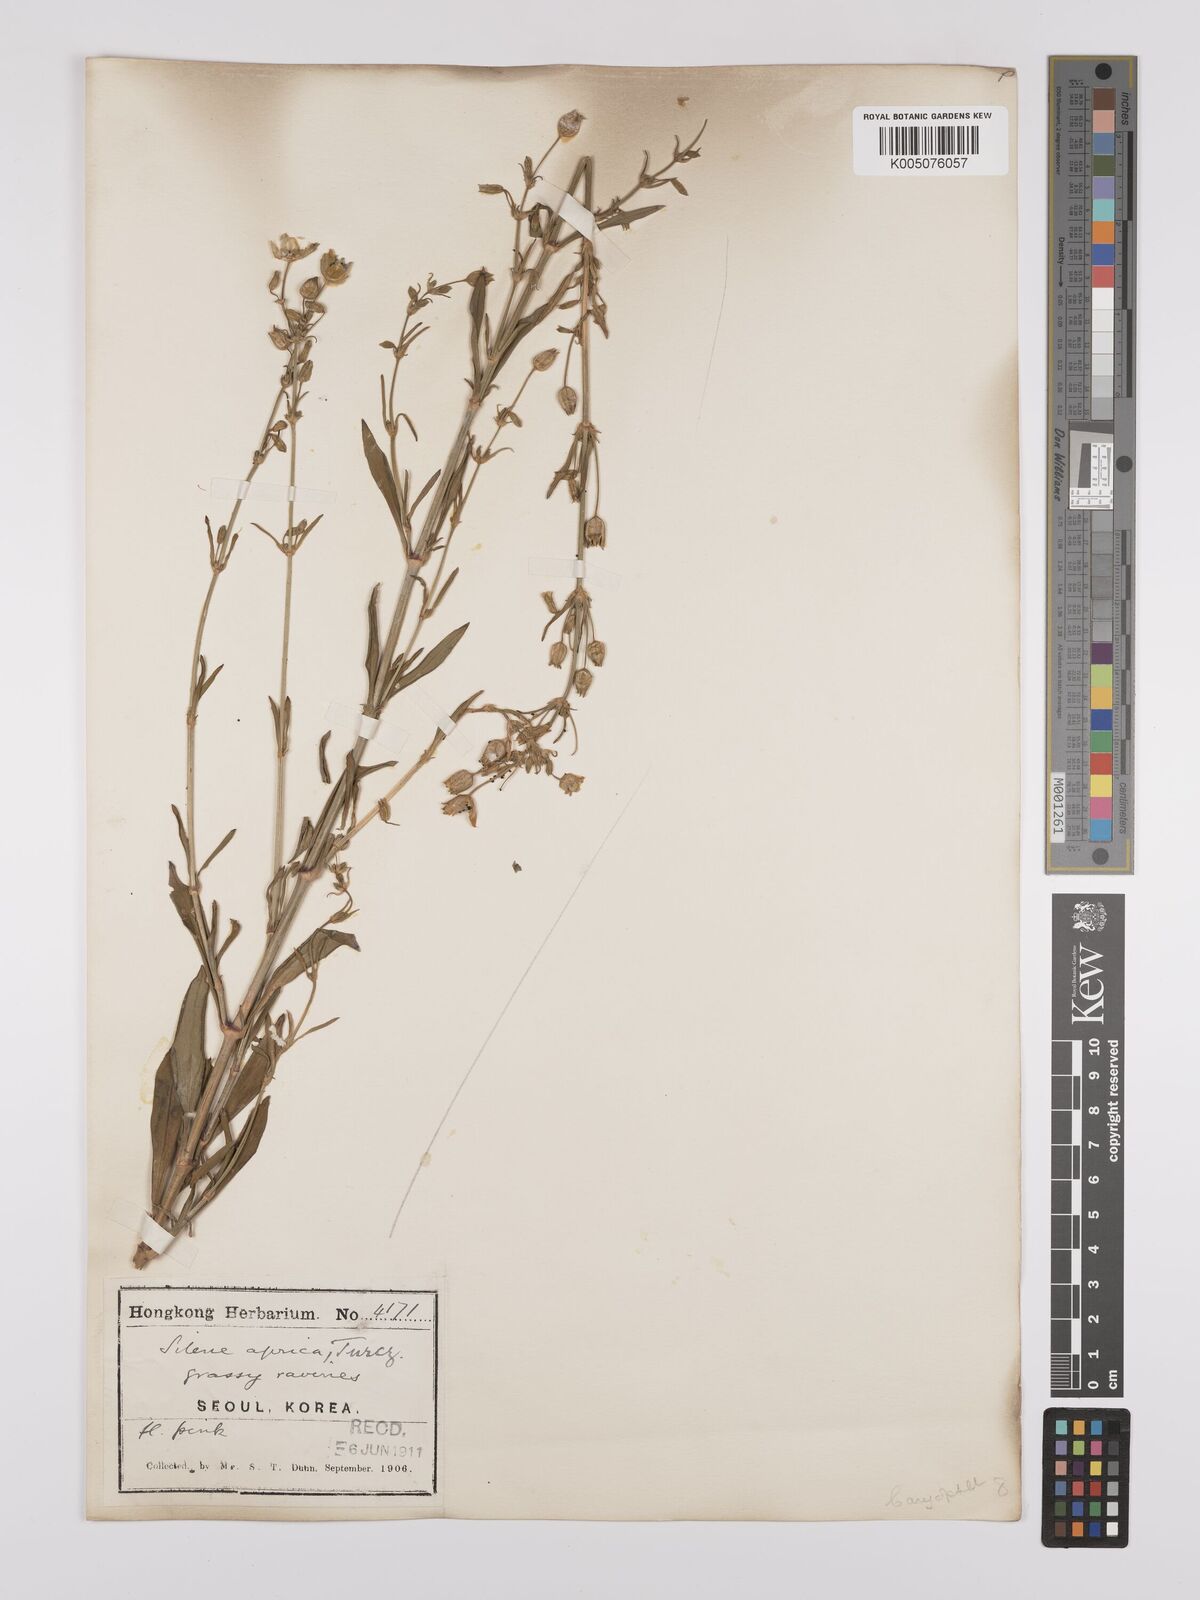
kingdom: Plantae
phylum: Tracheophyta
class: Magnoliopsida
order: Caryophyllales
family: Caryophyllaceae
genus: Silene
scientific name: Silene aprica
